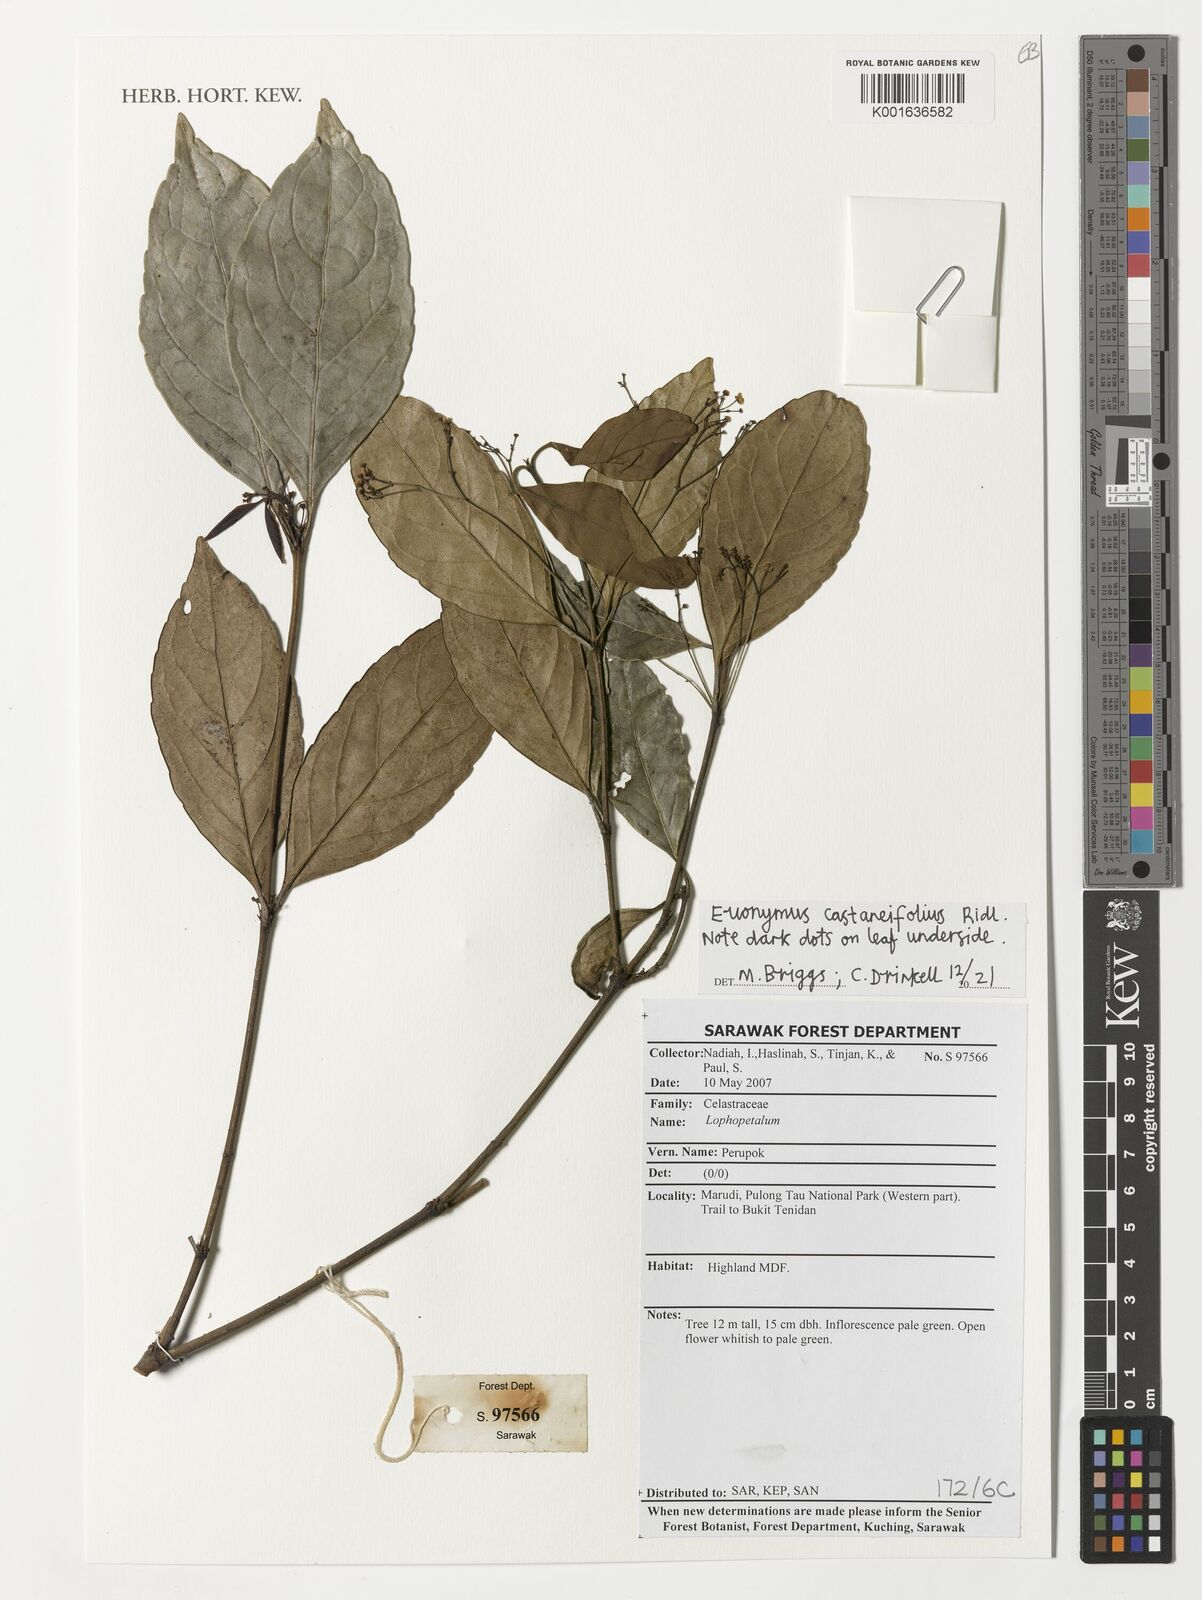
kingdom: Plantae
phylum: Tracheophyta
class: Magnoliopsida
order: Celastrales
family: Celastraceae
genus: Euonymus
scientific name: Euonymus castaneifolius
